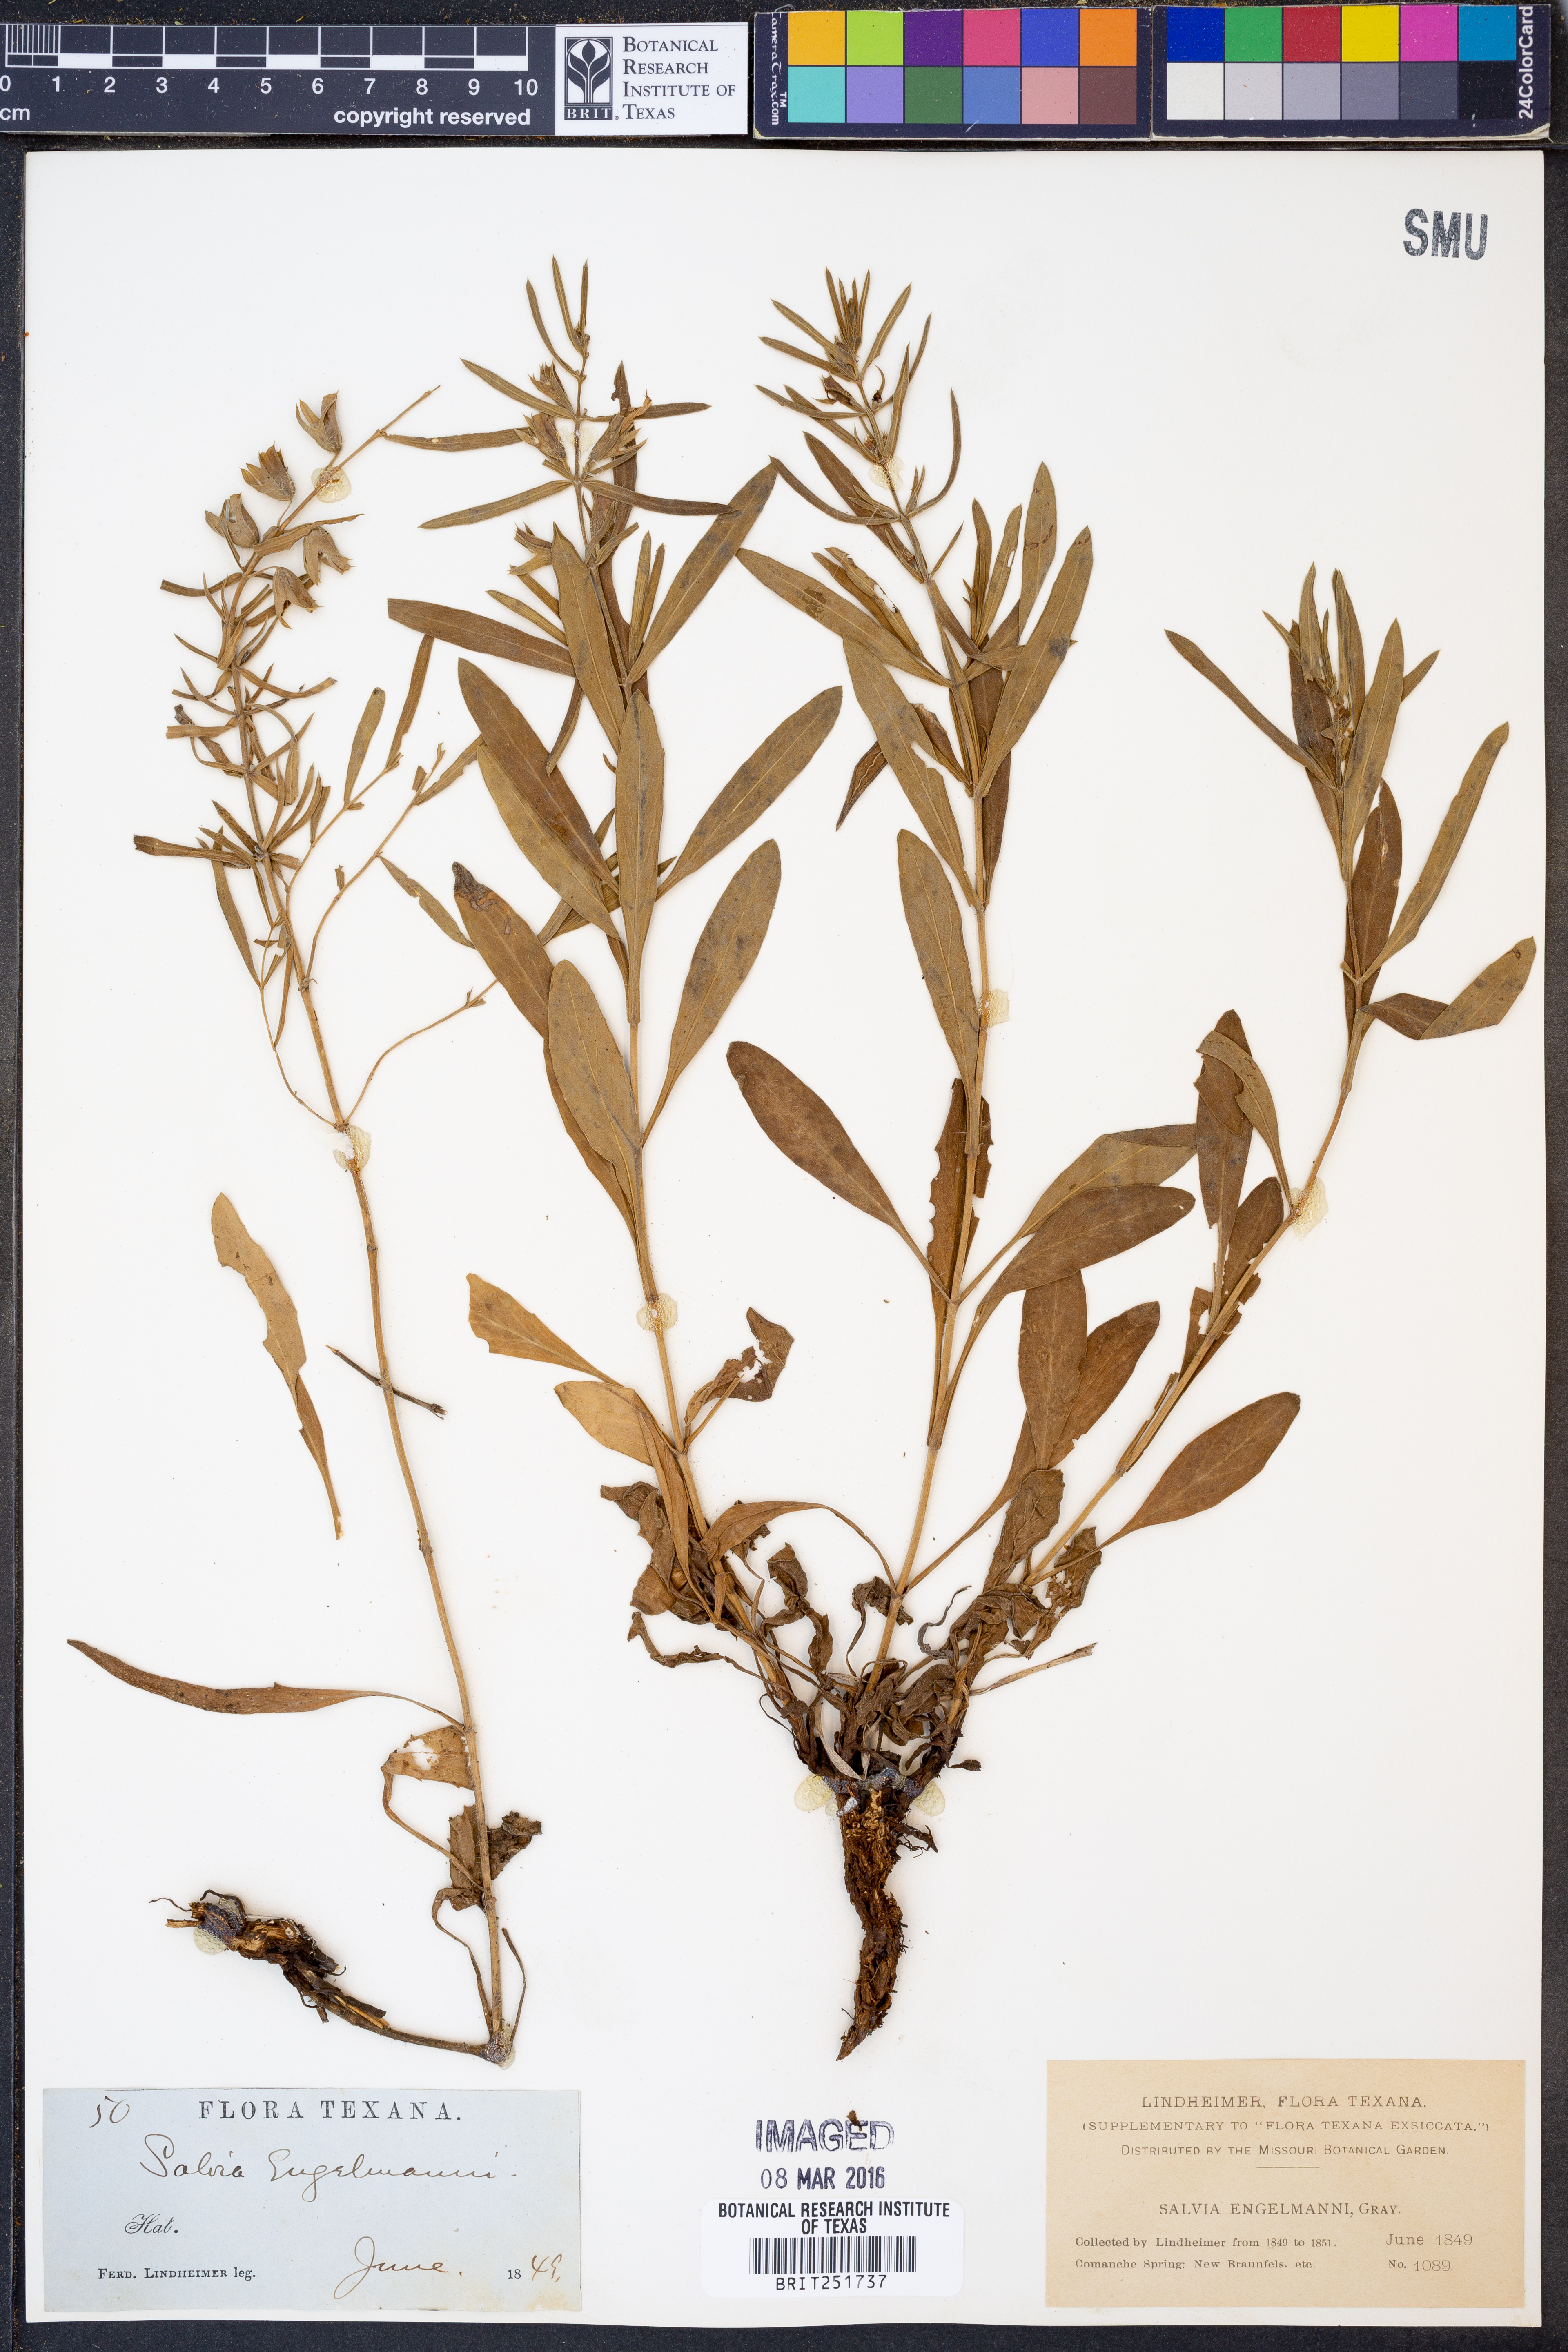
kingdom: Plantae
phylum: Tracheophyta
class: Magnoliopsida
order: Lamiales
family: Lamiaceae
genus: Salvia
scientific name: Salvia engelmannii
